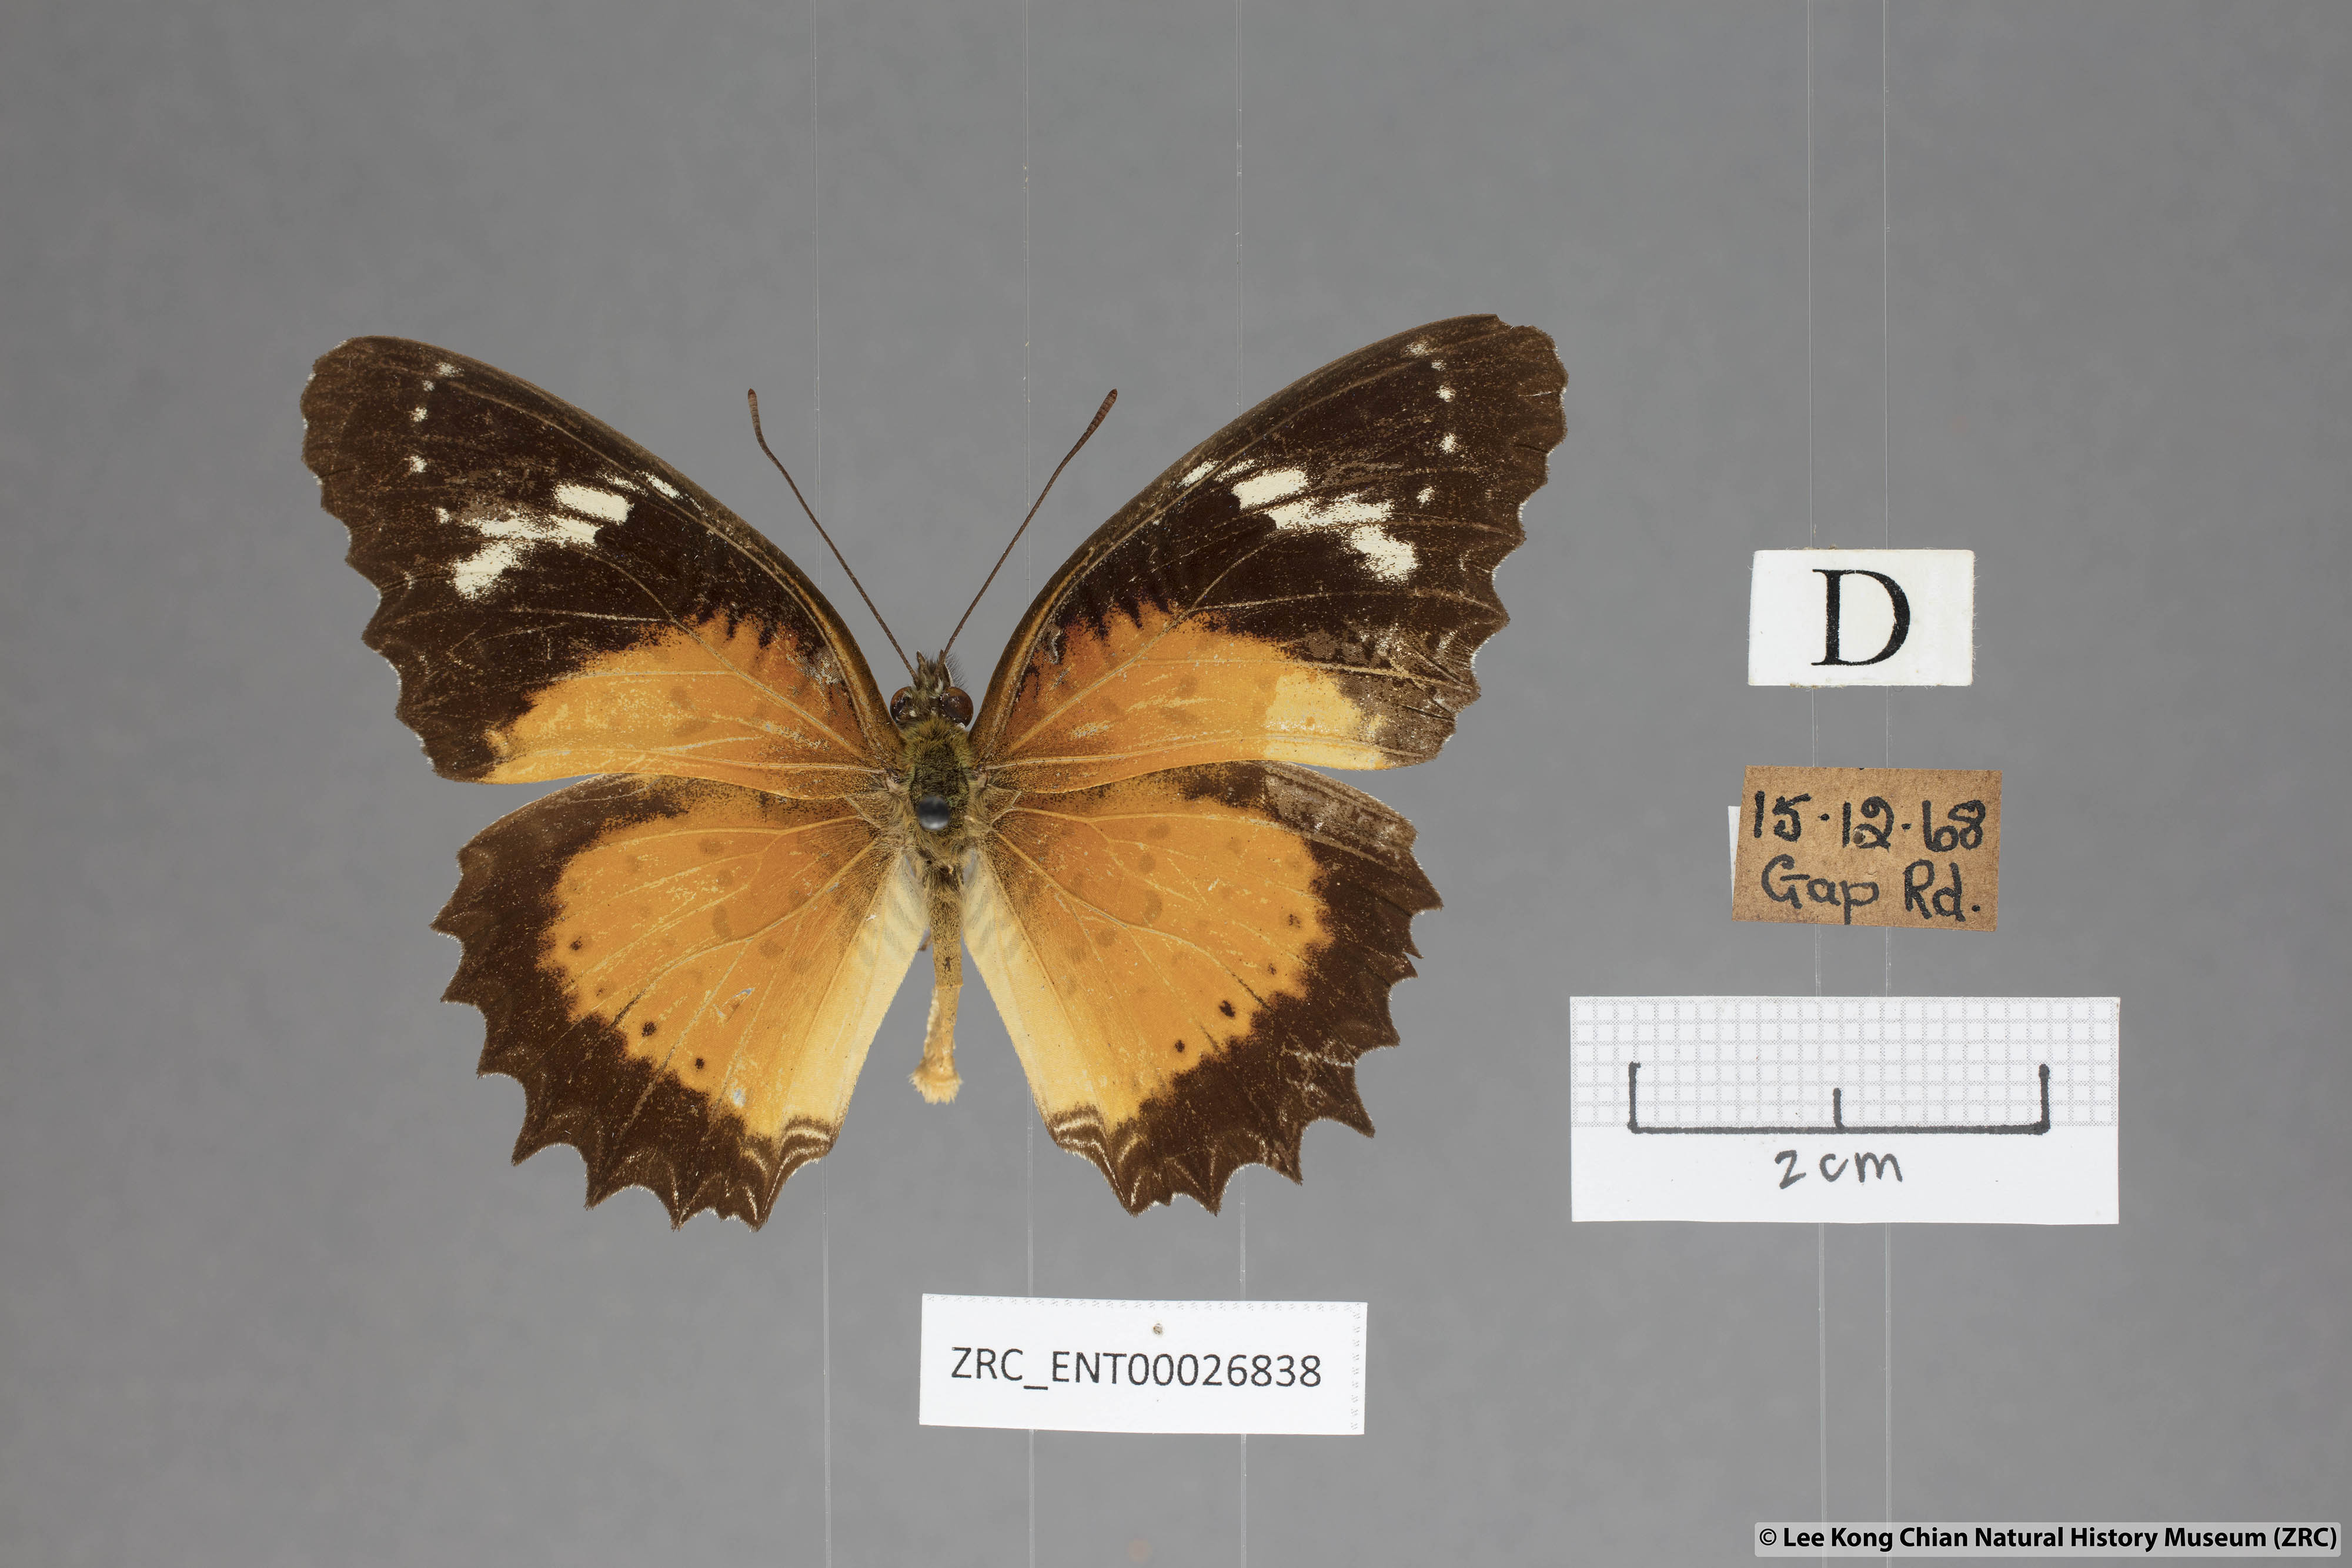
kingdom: Animalia
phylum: Arthropoda
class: Insecta
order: Lepidoptera
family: Nymphalidae
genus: Cethosia
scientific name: Cethosia penthesilea
